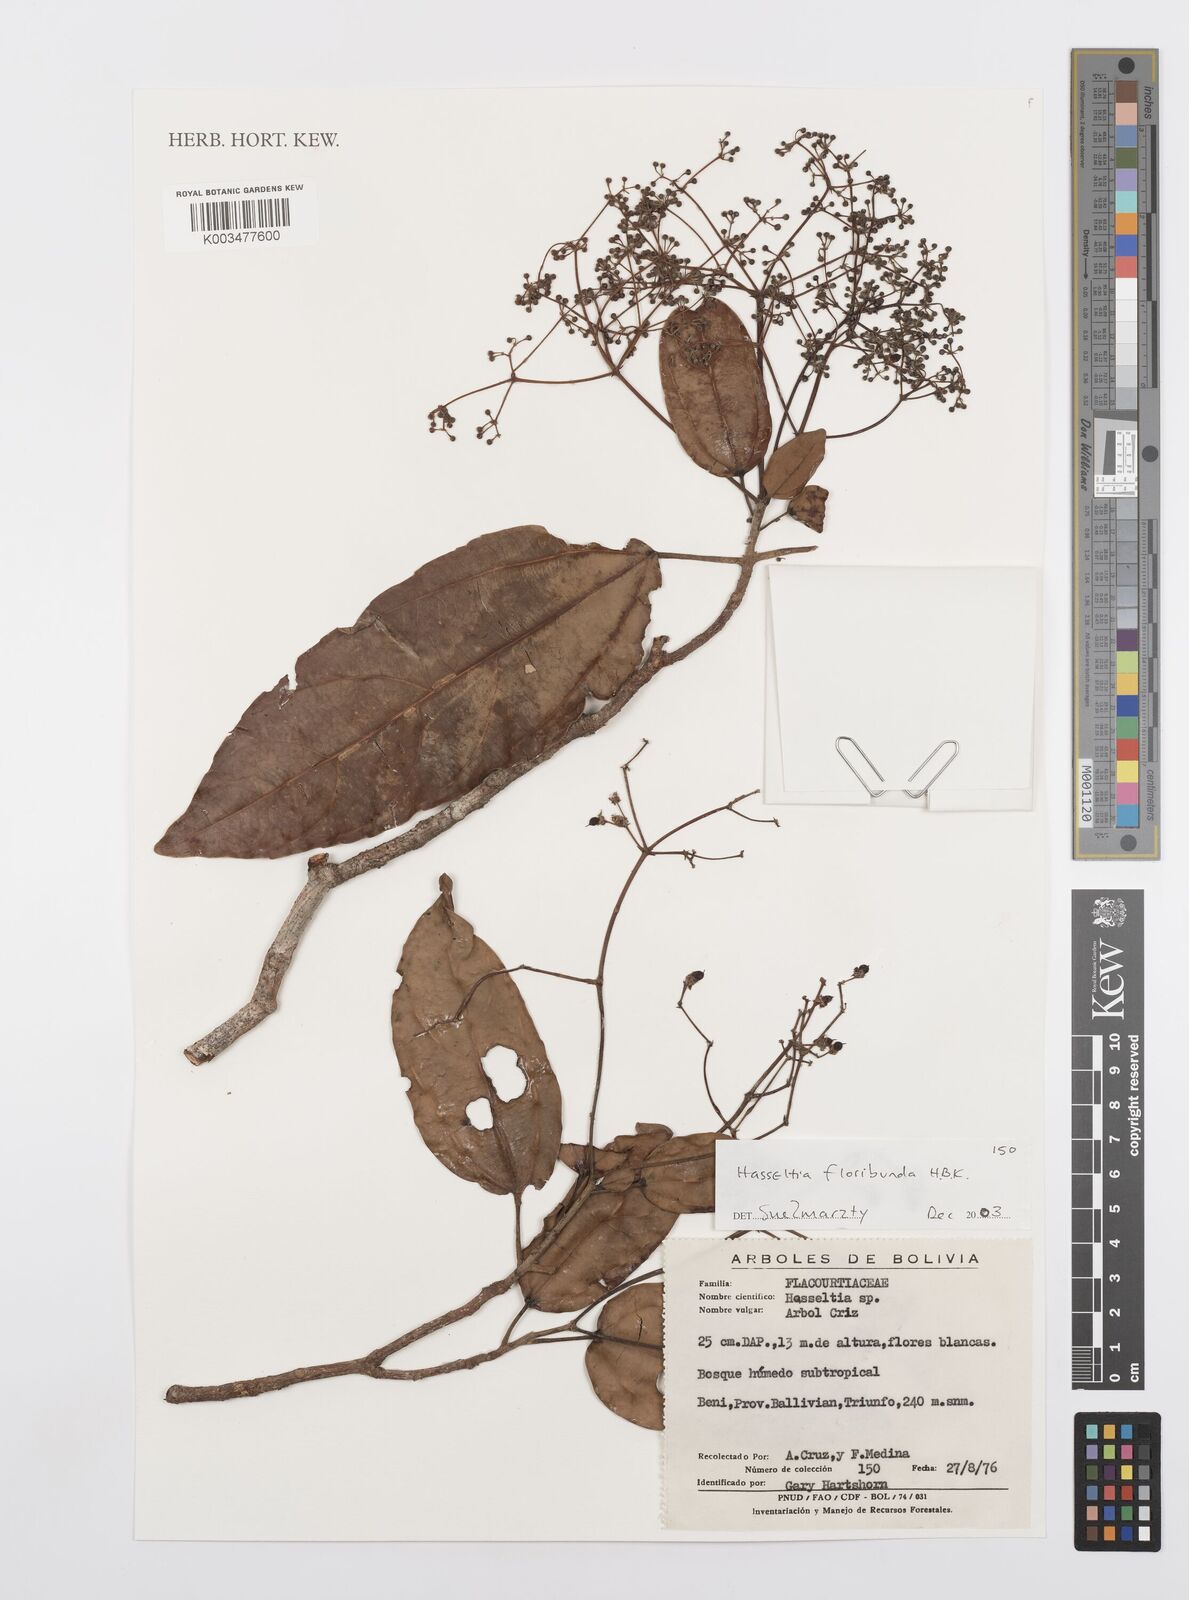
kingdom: Plantae
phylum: Tracheophyta
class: Magnoliopsida
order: Malpighiales
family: Salicaceae
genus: Hasseltia
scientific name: Hasseltia floribunda
